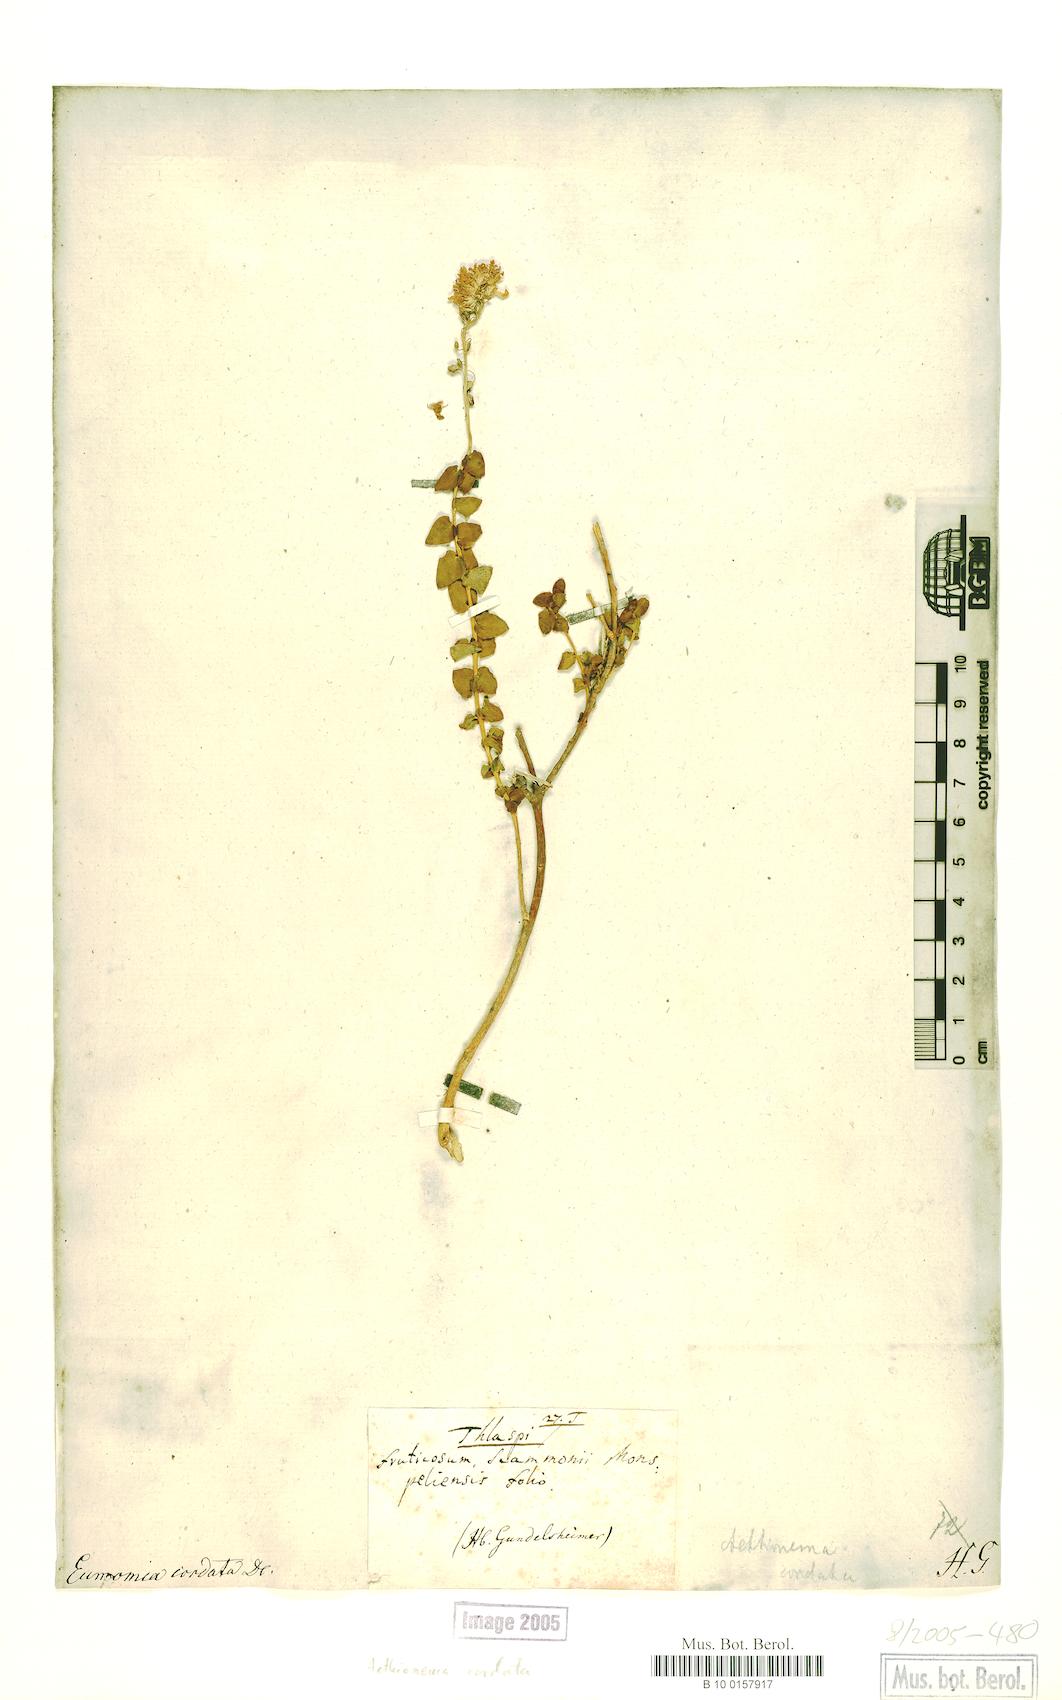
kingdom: Plantae
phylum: Tracheophyta
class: Magnoliopsida
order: Brassicales
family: Brassicaceae
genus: Aethionema
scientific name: Aethionema cordatum
